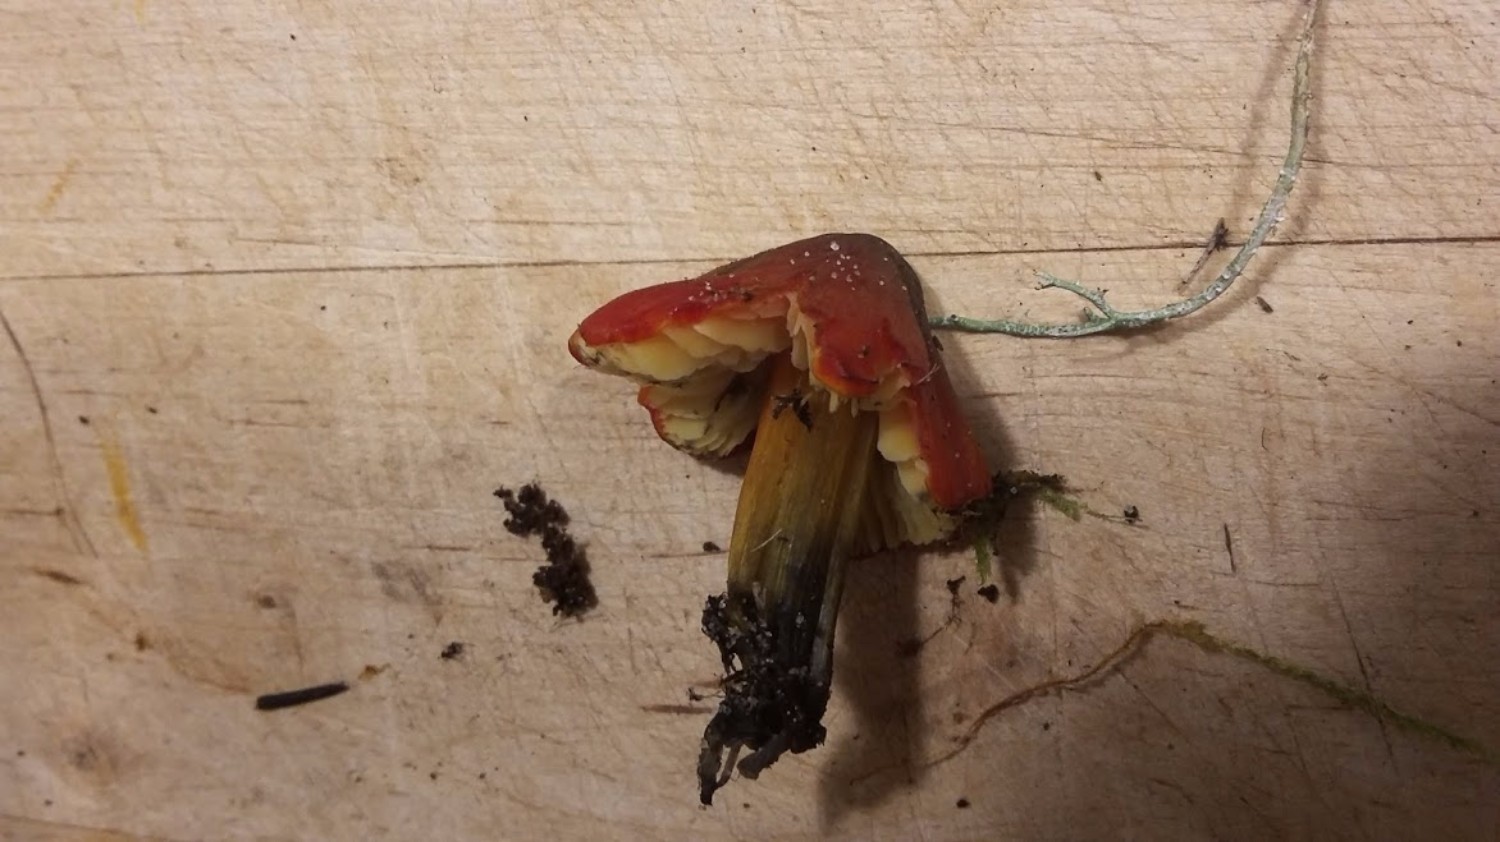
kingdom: Fungi
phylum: Basidiomycota
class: Agaricomycetes
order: Agaricales
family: Hygrophoraceae
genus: Hygrocybe
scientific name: Hygrocybe
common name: vokshat
